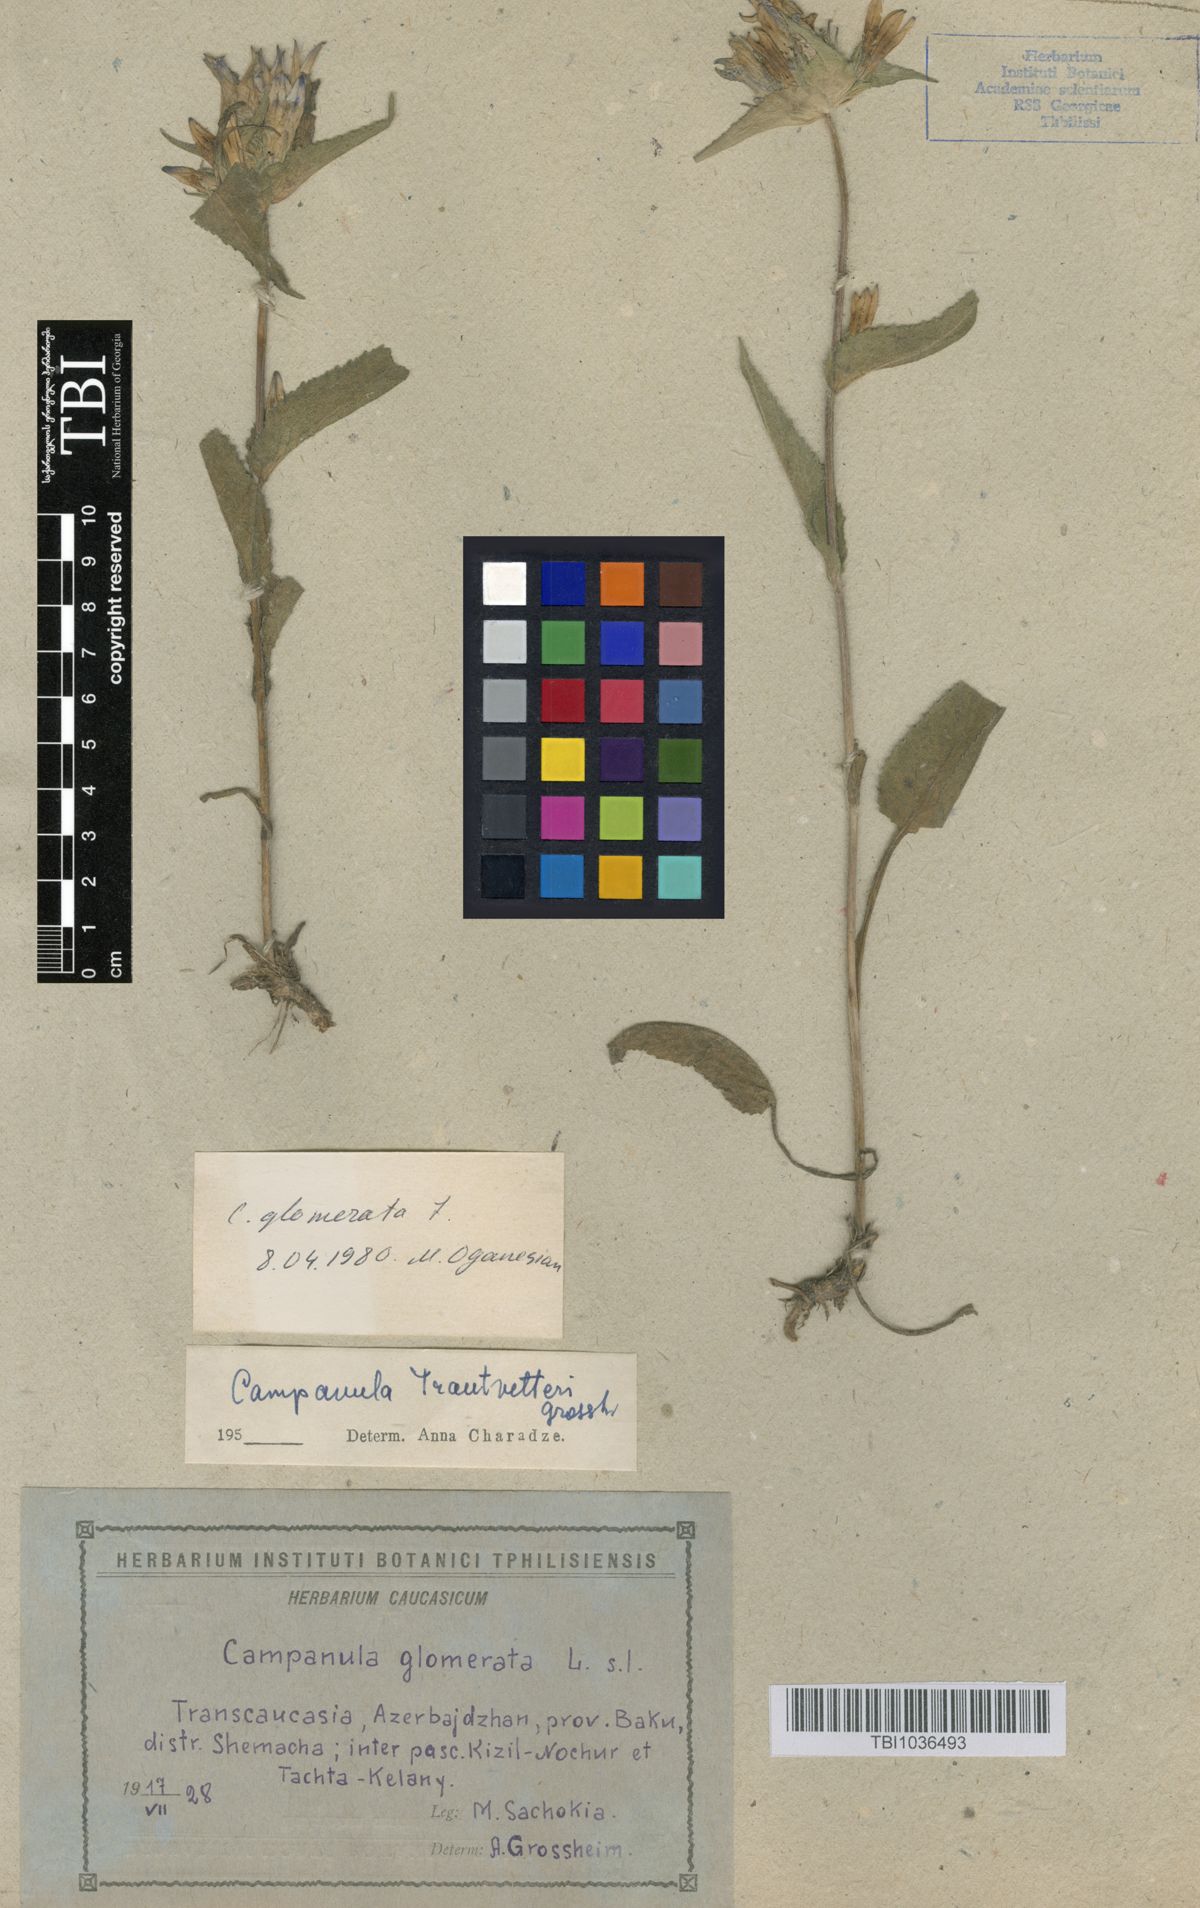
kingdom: Plantae
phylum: Tracheophyta
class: Magnoliopsida
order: Asterales
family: Campanulaceae
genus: Campanula
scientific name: Campanula glomerata
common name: Clustered bellflower
